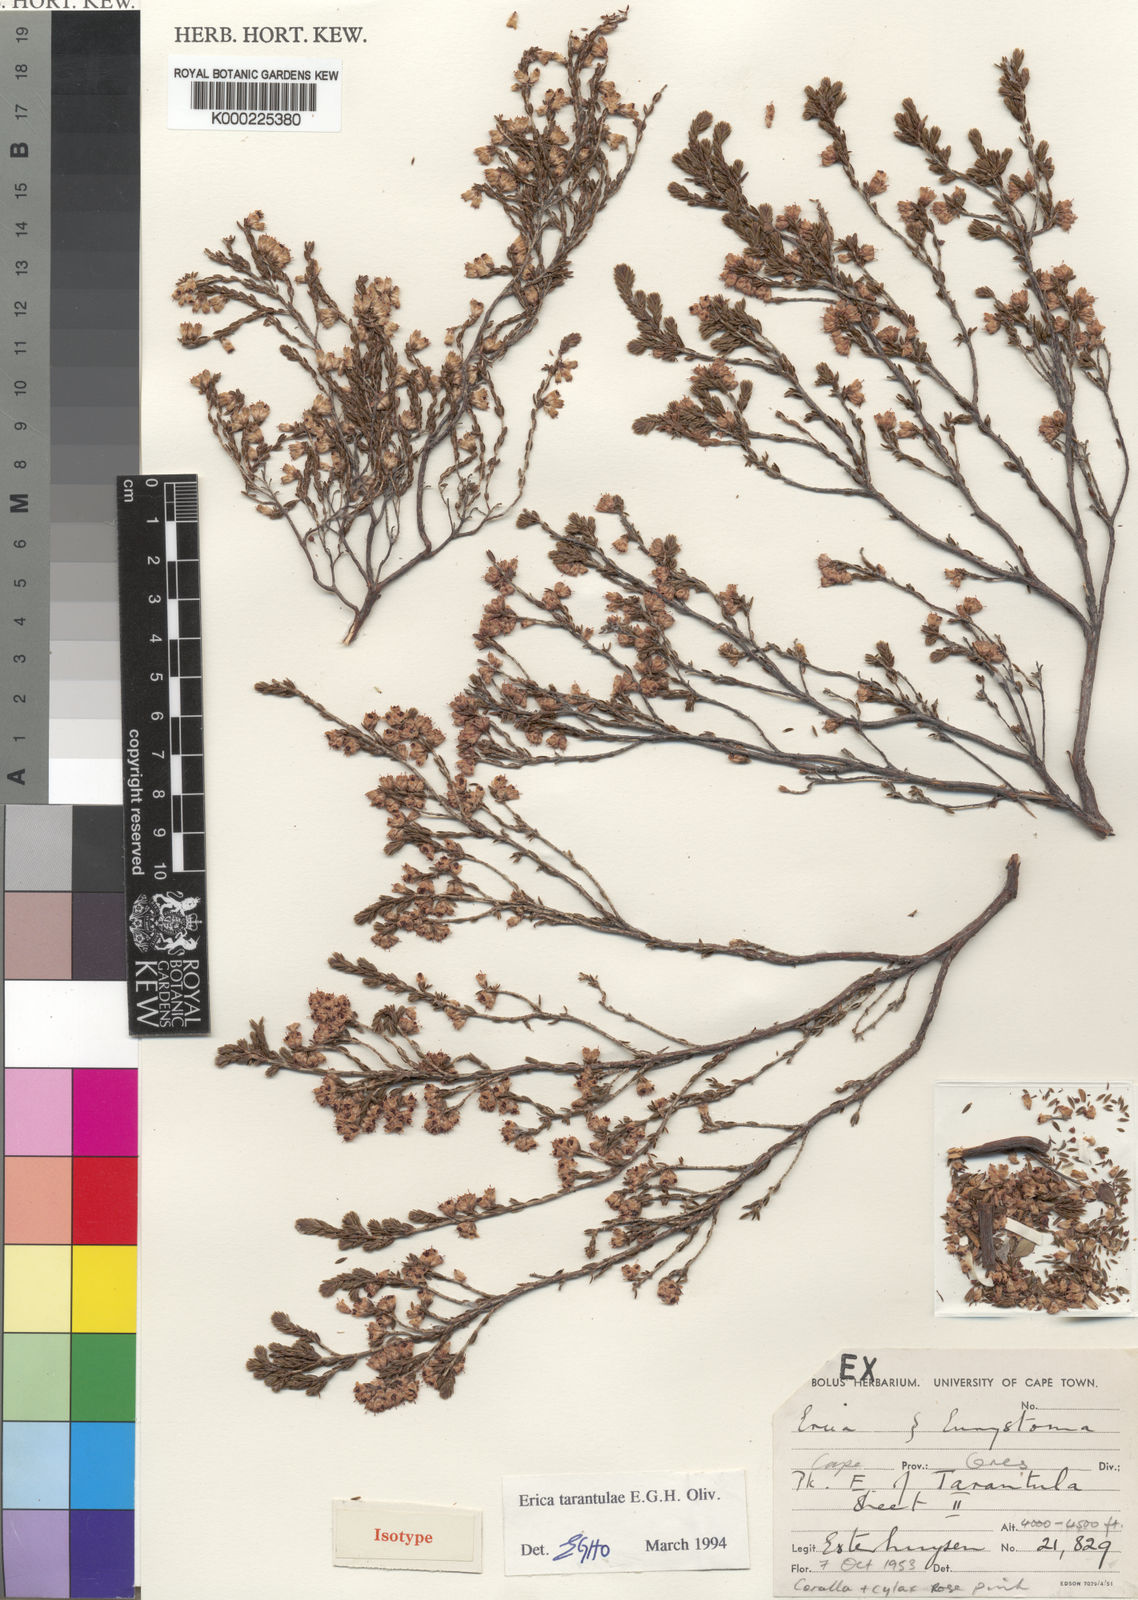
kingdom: Plantae
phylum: Tracheophyta
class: Magnoliopsida
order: Ericales
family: Ericaceae
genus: Erica
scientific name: Erica tarantulae
